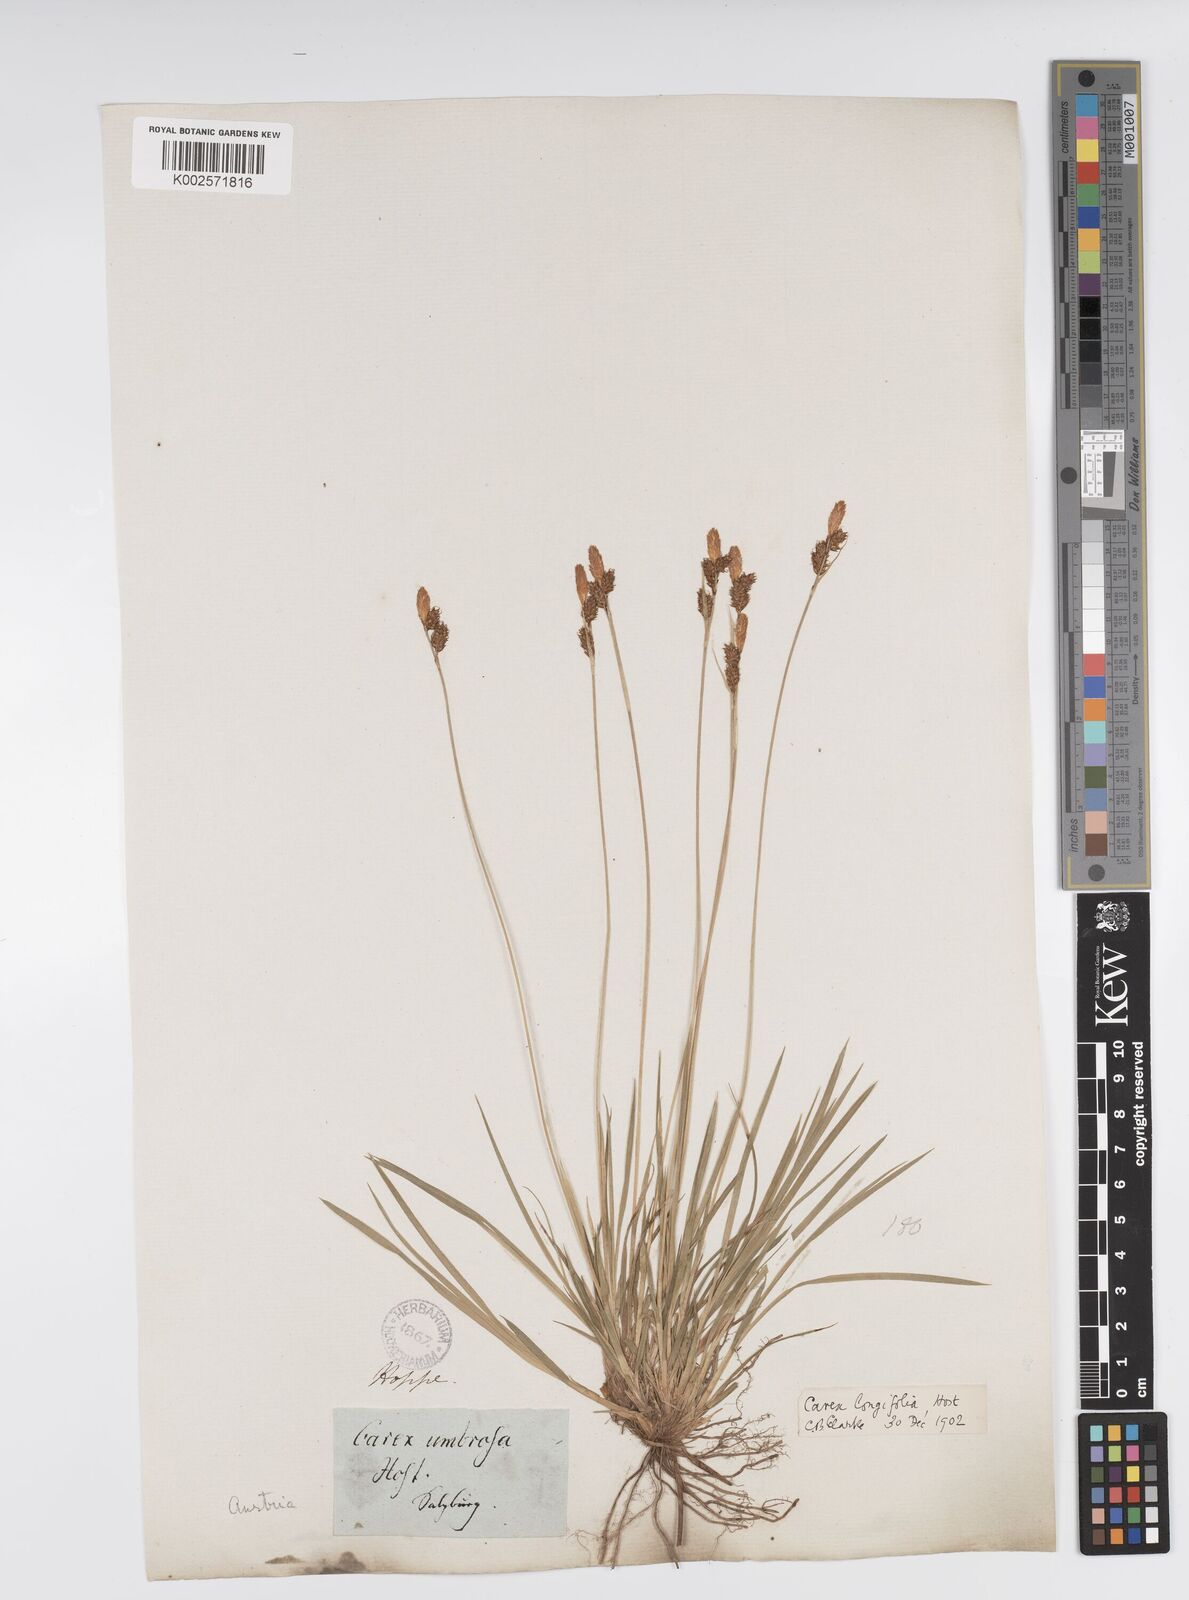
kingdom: Plantae
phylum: Tracheophyta
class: Liliopsida
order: Poales
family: Cyperaceae
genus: Carex
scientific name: Carex umbrosa
